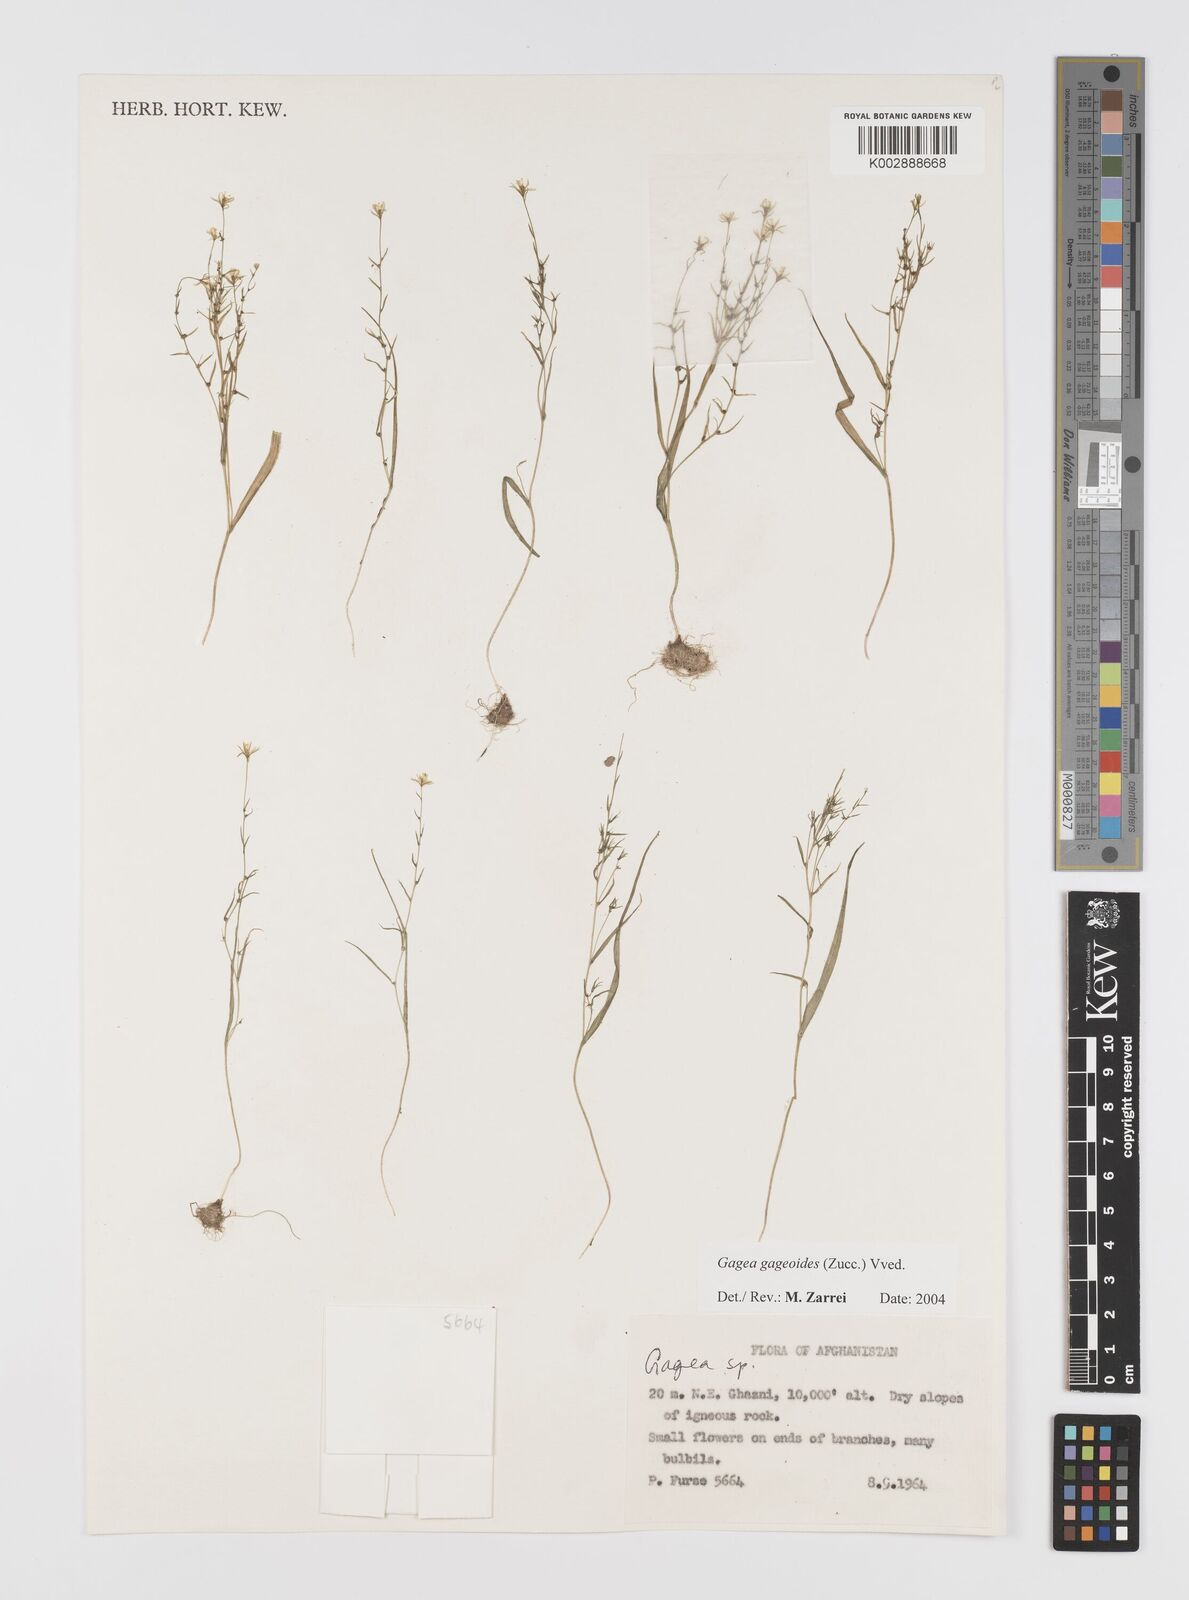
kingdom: Plantae
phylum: Tracheophyta
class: Liliopsida
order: Liliales
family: Liliaceae
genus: Gagea
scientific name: Gagea gageoides
